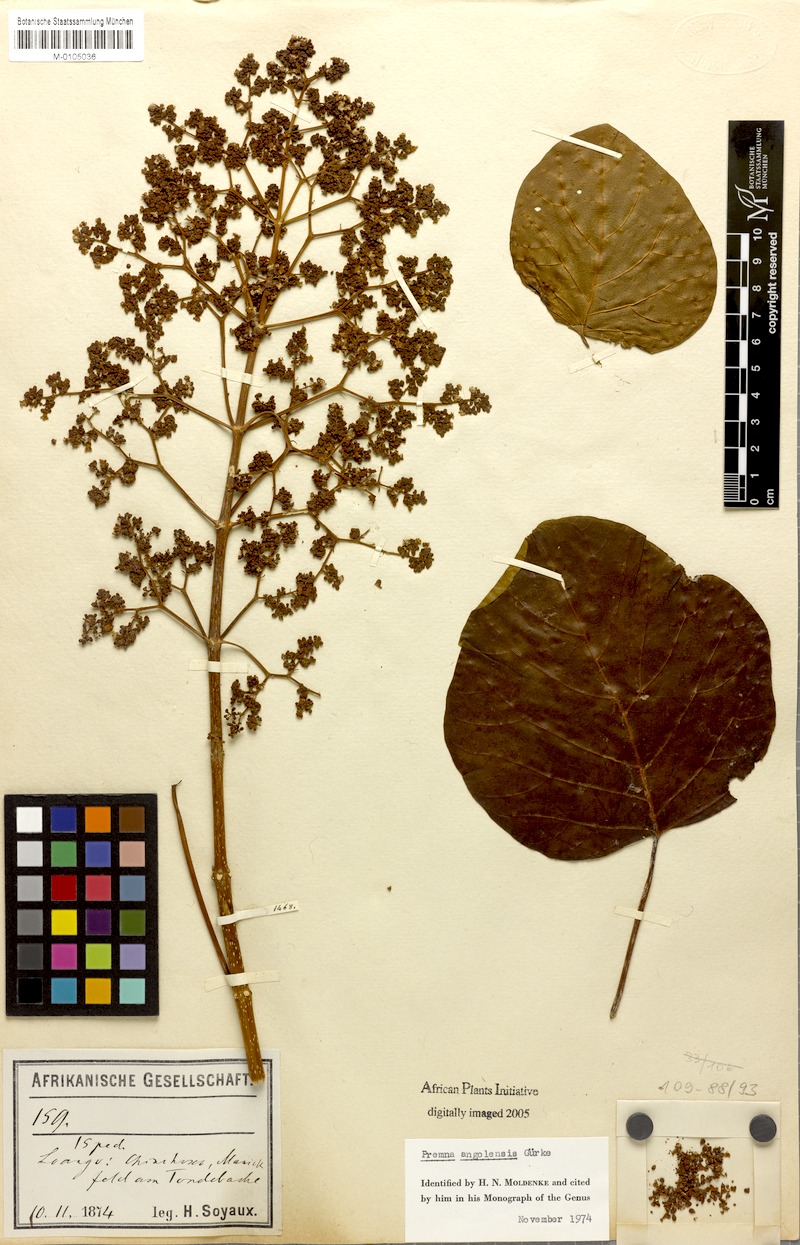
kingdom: Plantae
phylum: Tracheophyta
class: Magnoliopsida
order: Lamiales
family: Lamiaceae
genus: Premna
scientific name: Premna angolensis
